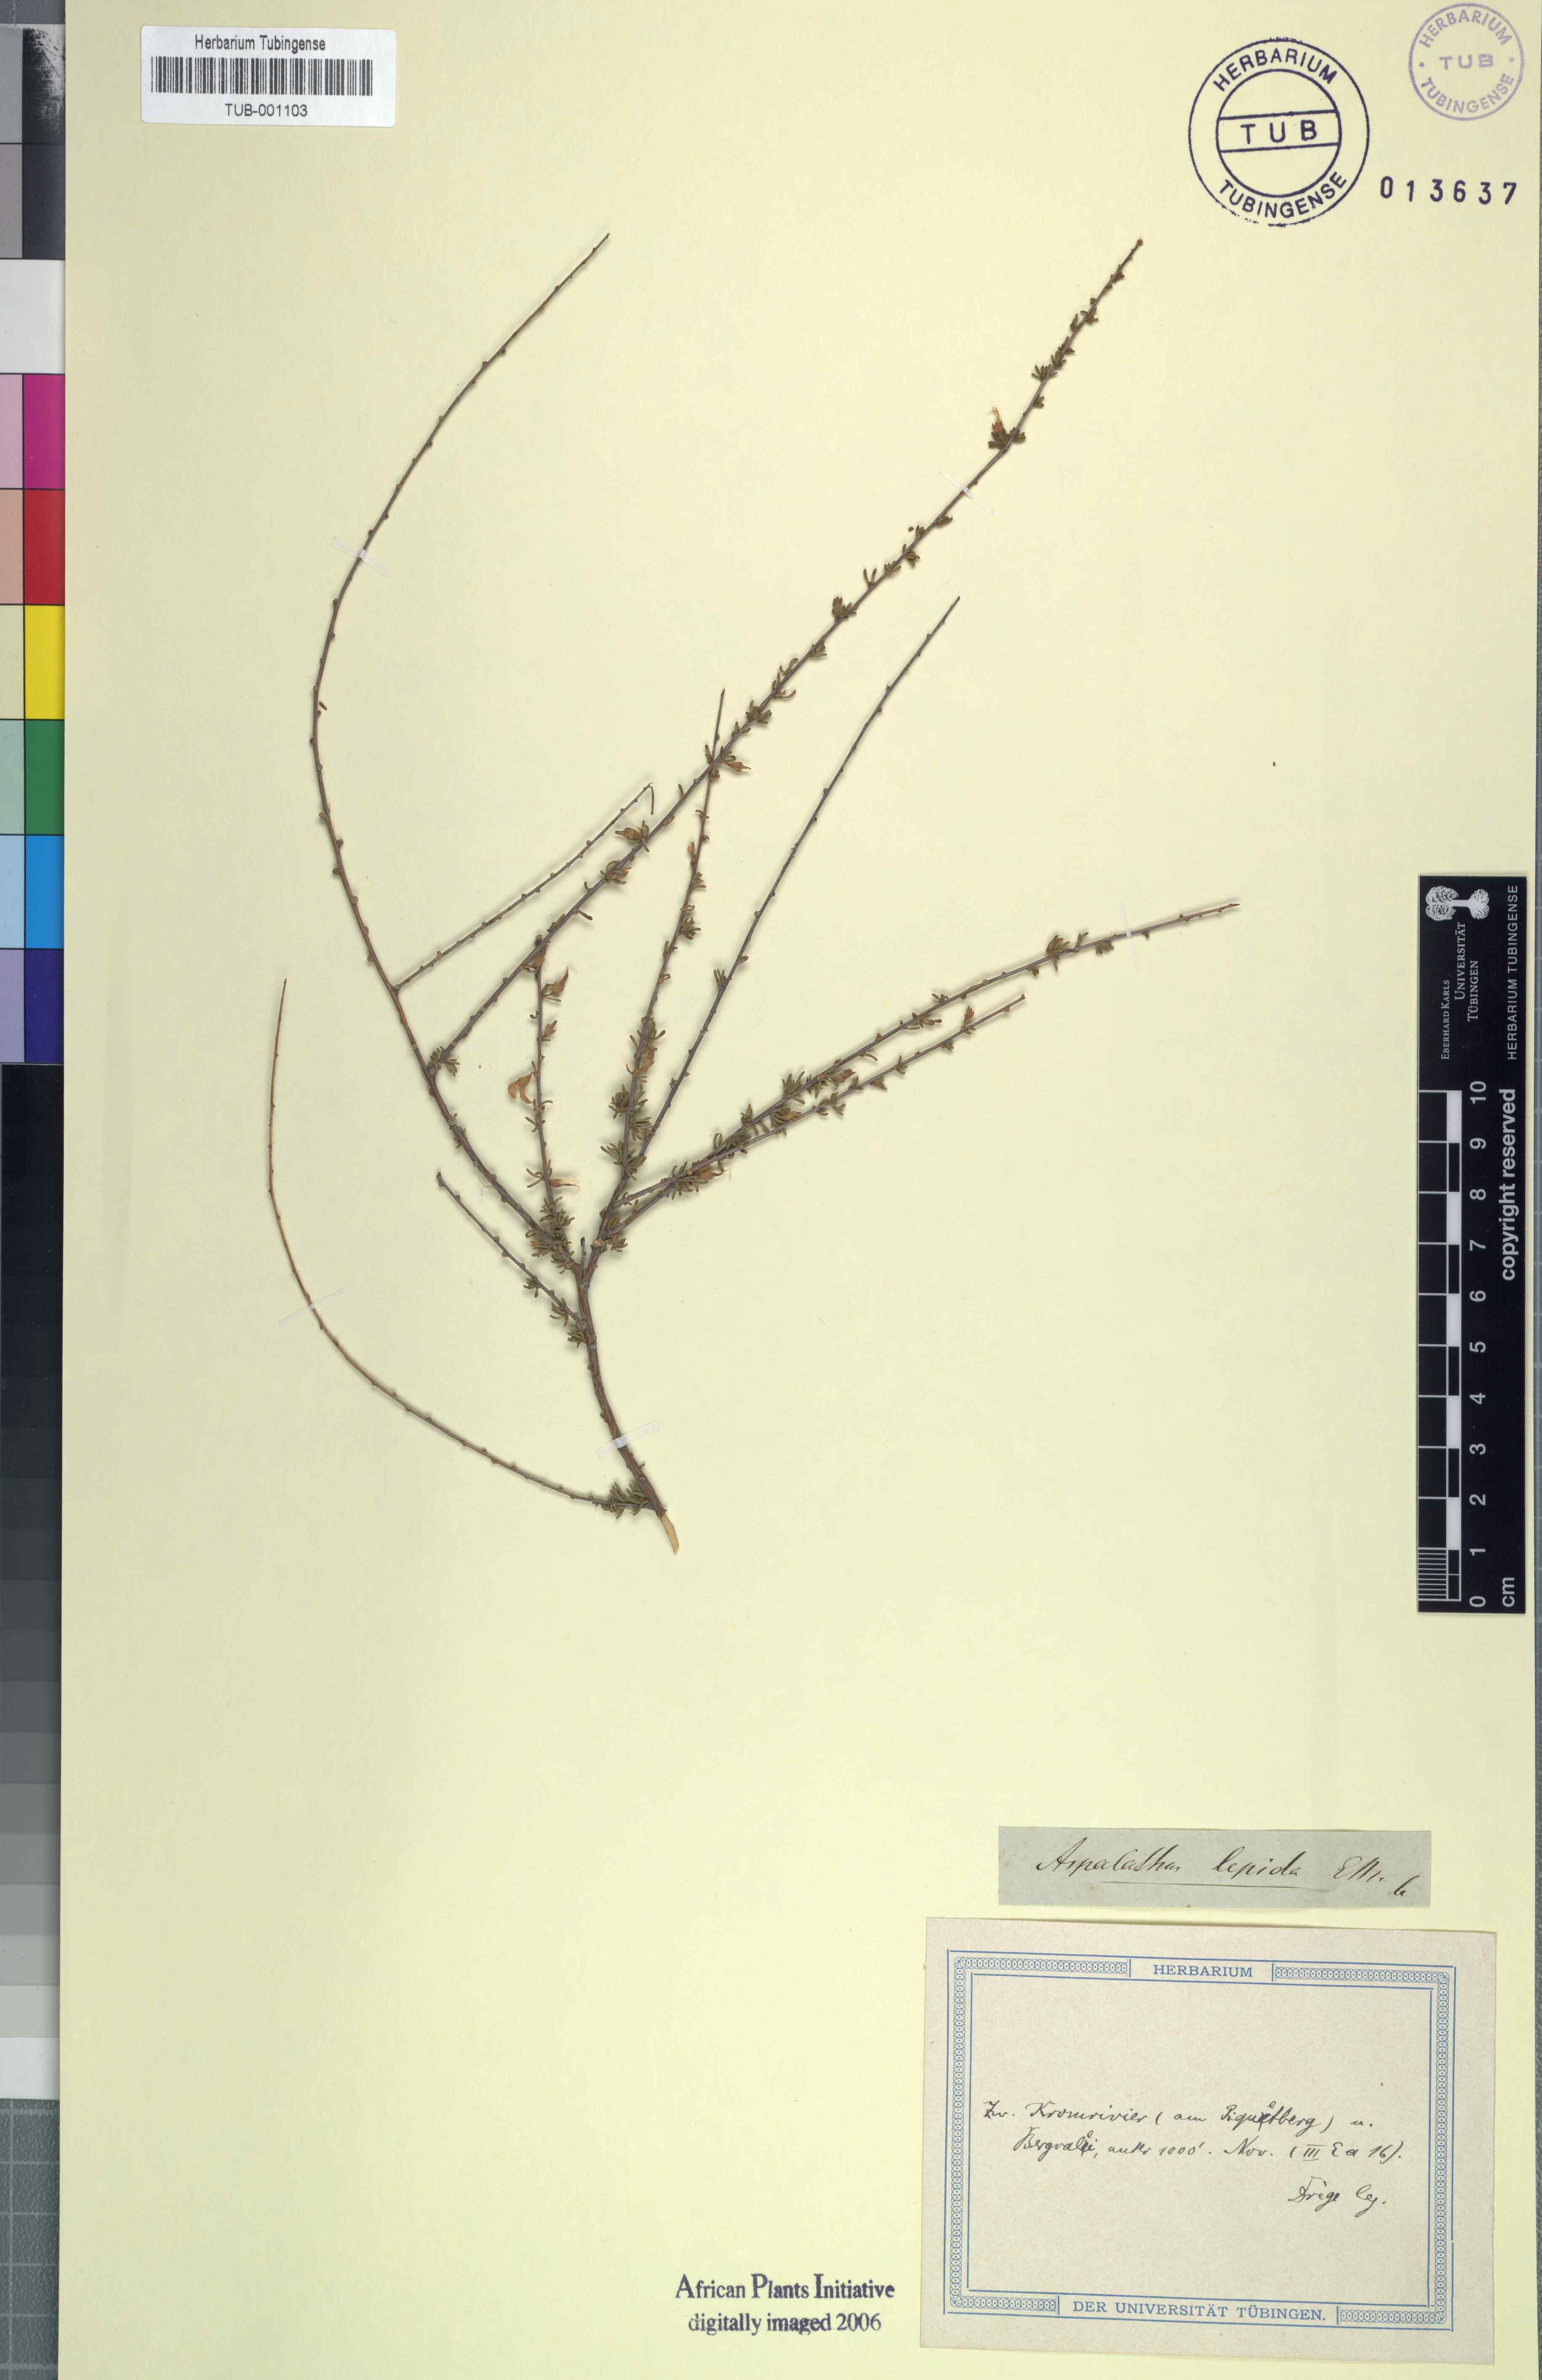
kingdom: Plantae
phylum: Tracheophyta
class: Magnoliopsida
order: Fabales
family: Fabaceae
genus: Aspalathus
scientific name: Aspalathus spinescens
